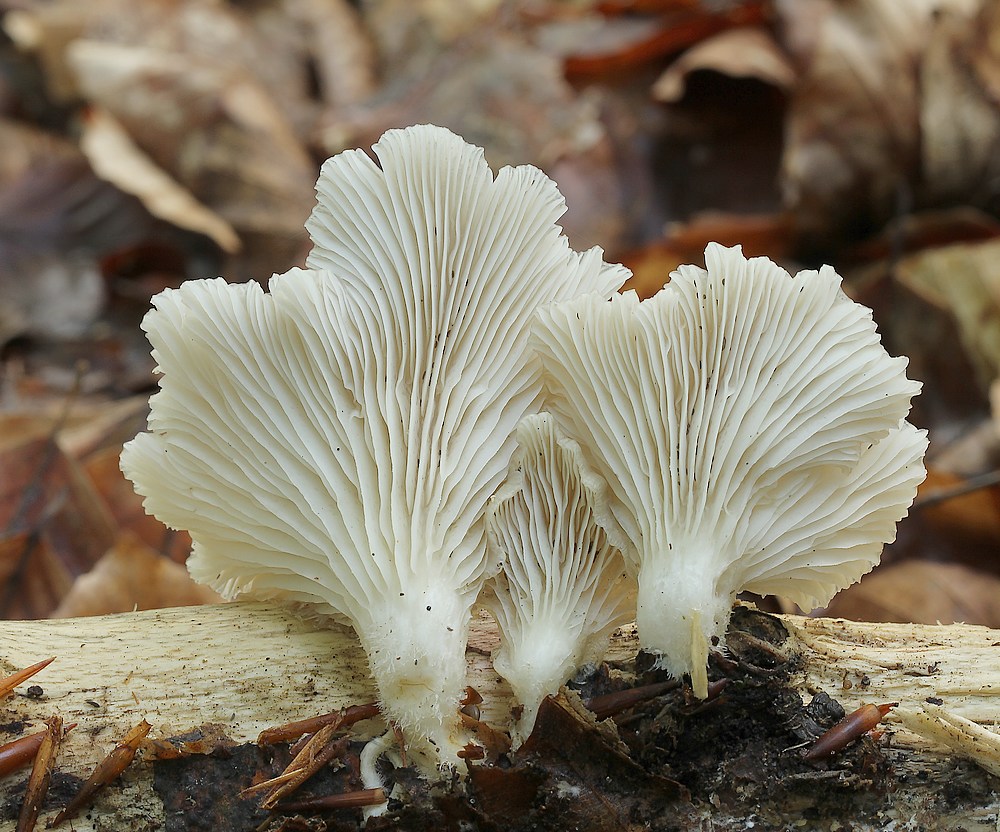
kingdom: Fungi
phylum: Basidiomycota
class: Agaricomycetes
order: Agaricales
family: Pleurotaceae
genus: Pleurotus
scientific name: Pleurotus pulmonarius
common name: sommer-østershat
